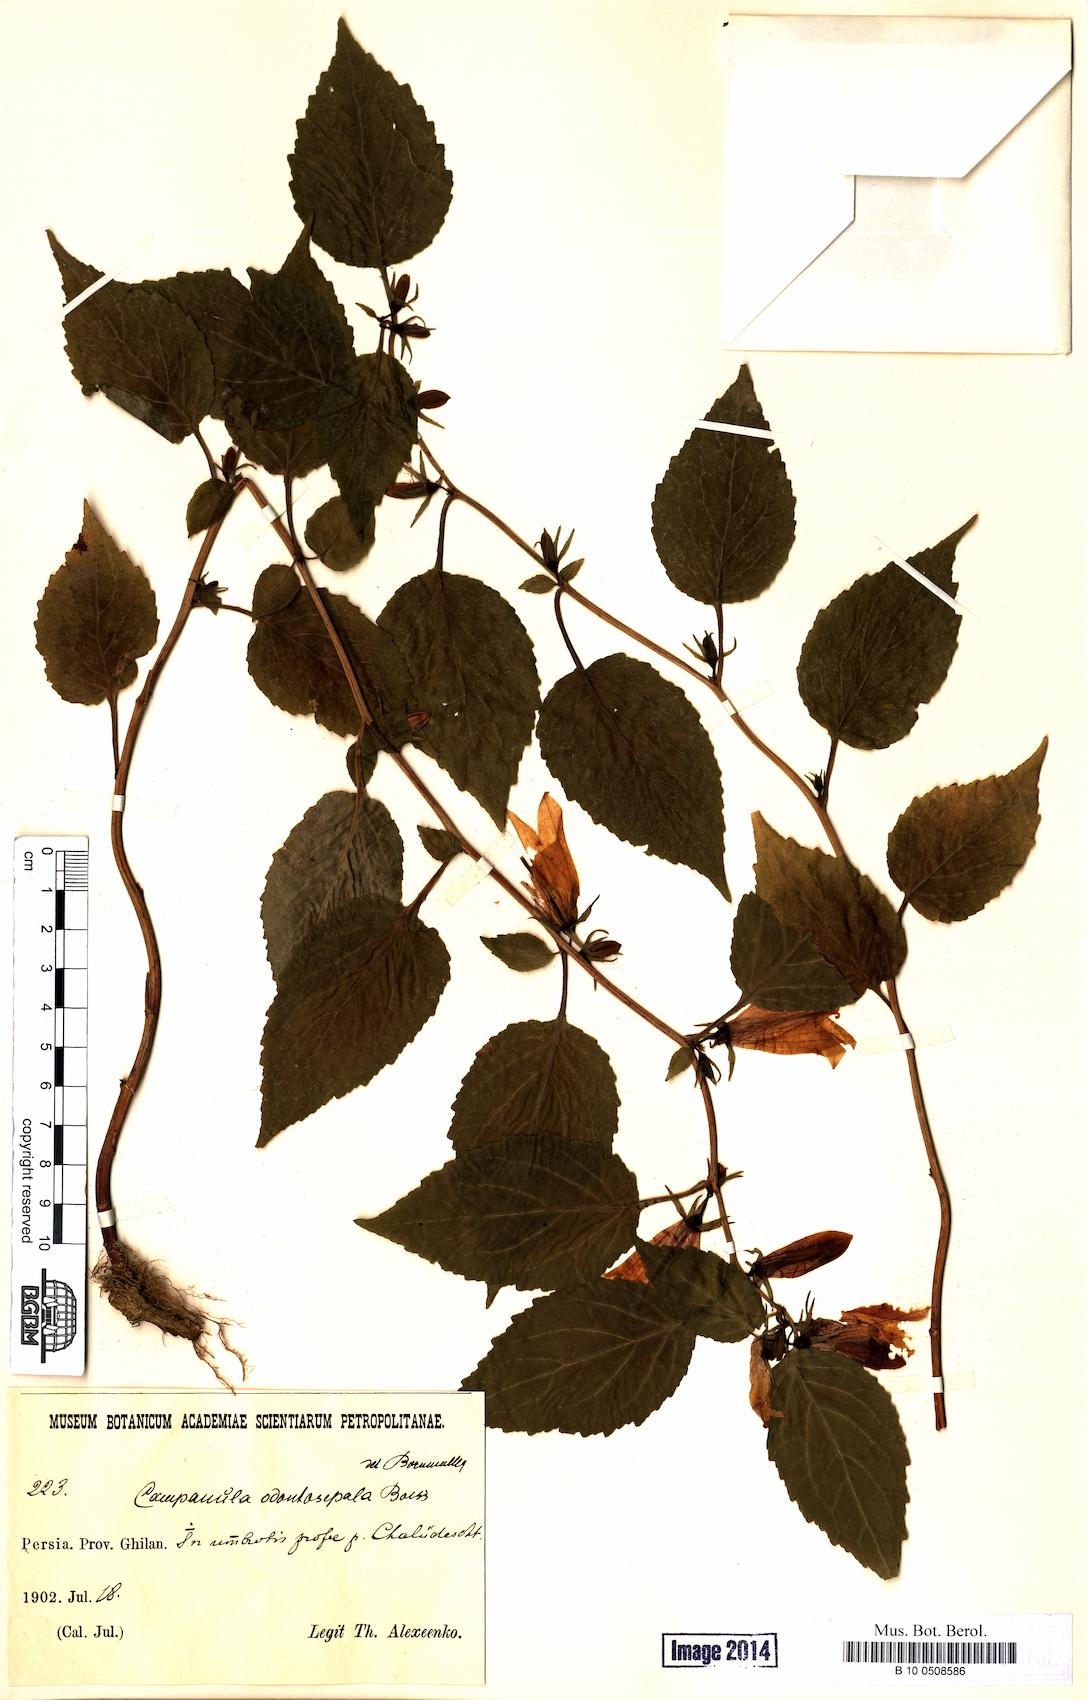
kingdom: Plantae
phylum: Tracheophyta
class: Magnoliopsida
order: Asterales
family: Campanulaceae
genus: Campanula
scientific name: Campanula odontosepala
